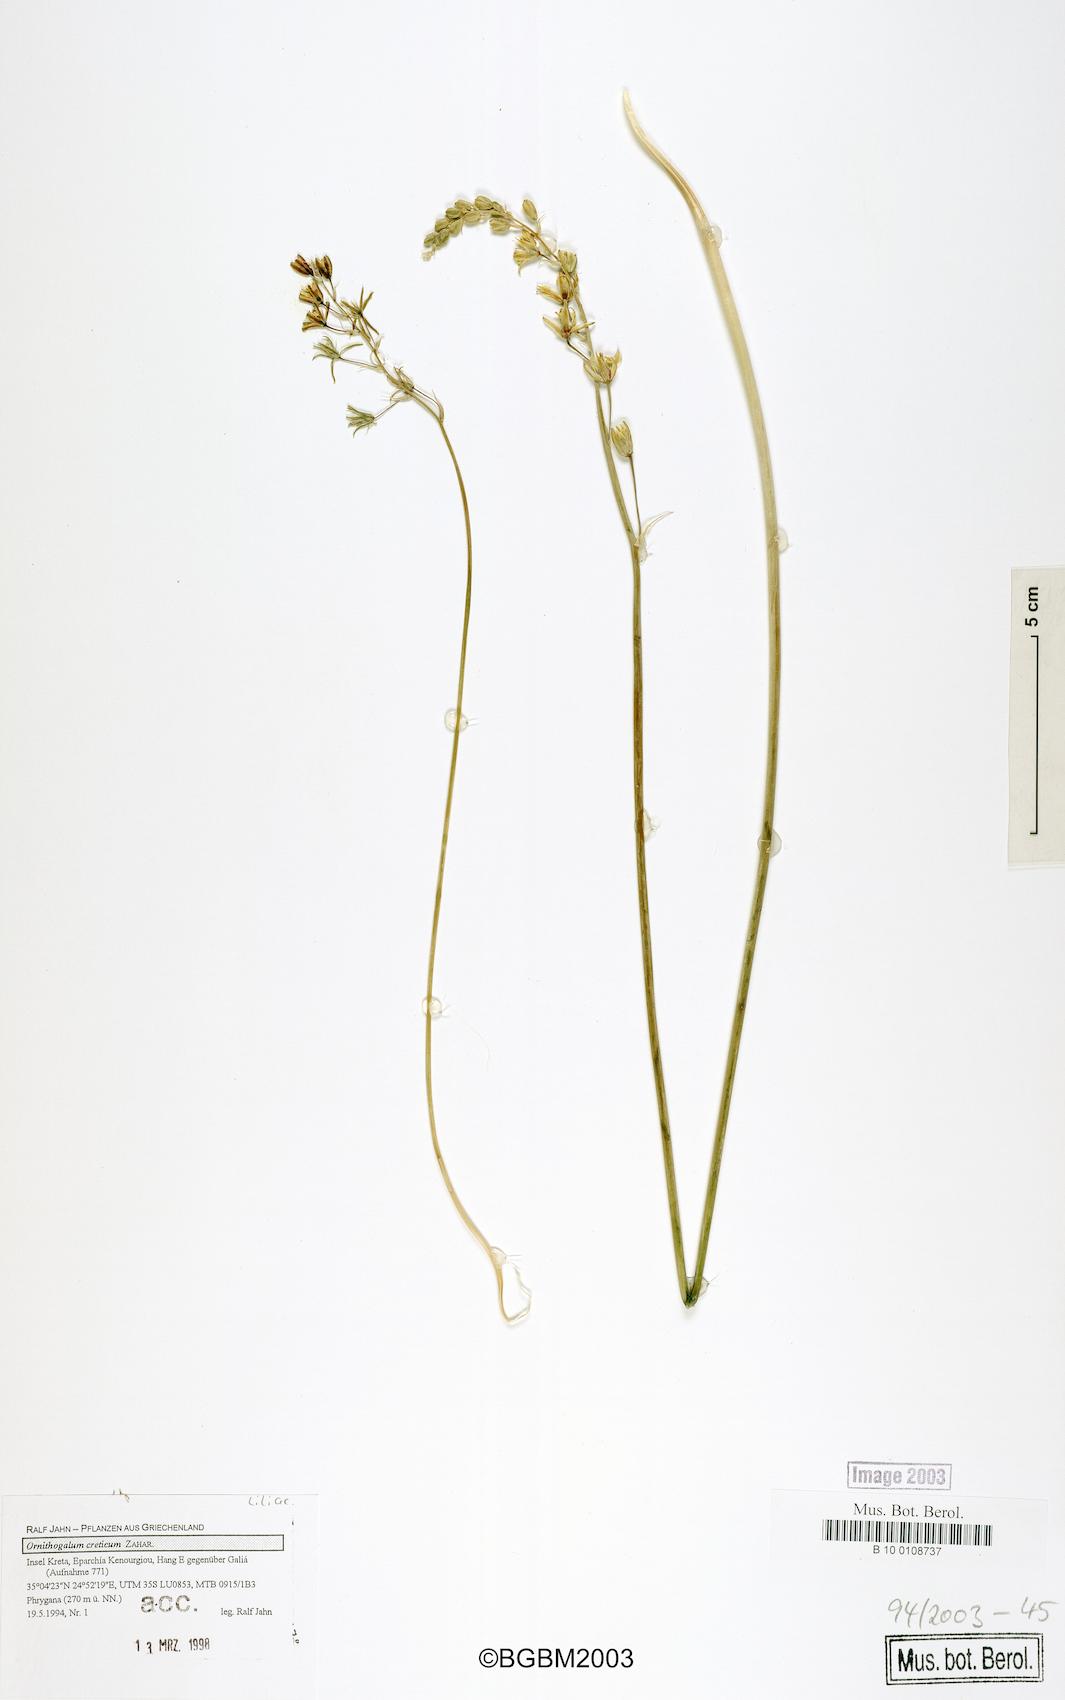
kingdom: Plantae
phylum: Tracheophyta
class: Liliopsida
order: Asparagales
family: Asparagaceae
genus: Ornithogalum
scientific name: Ornithogalum creticum
